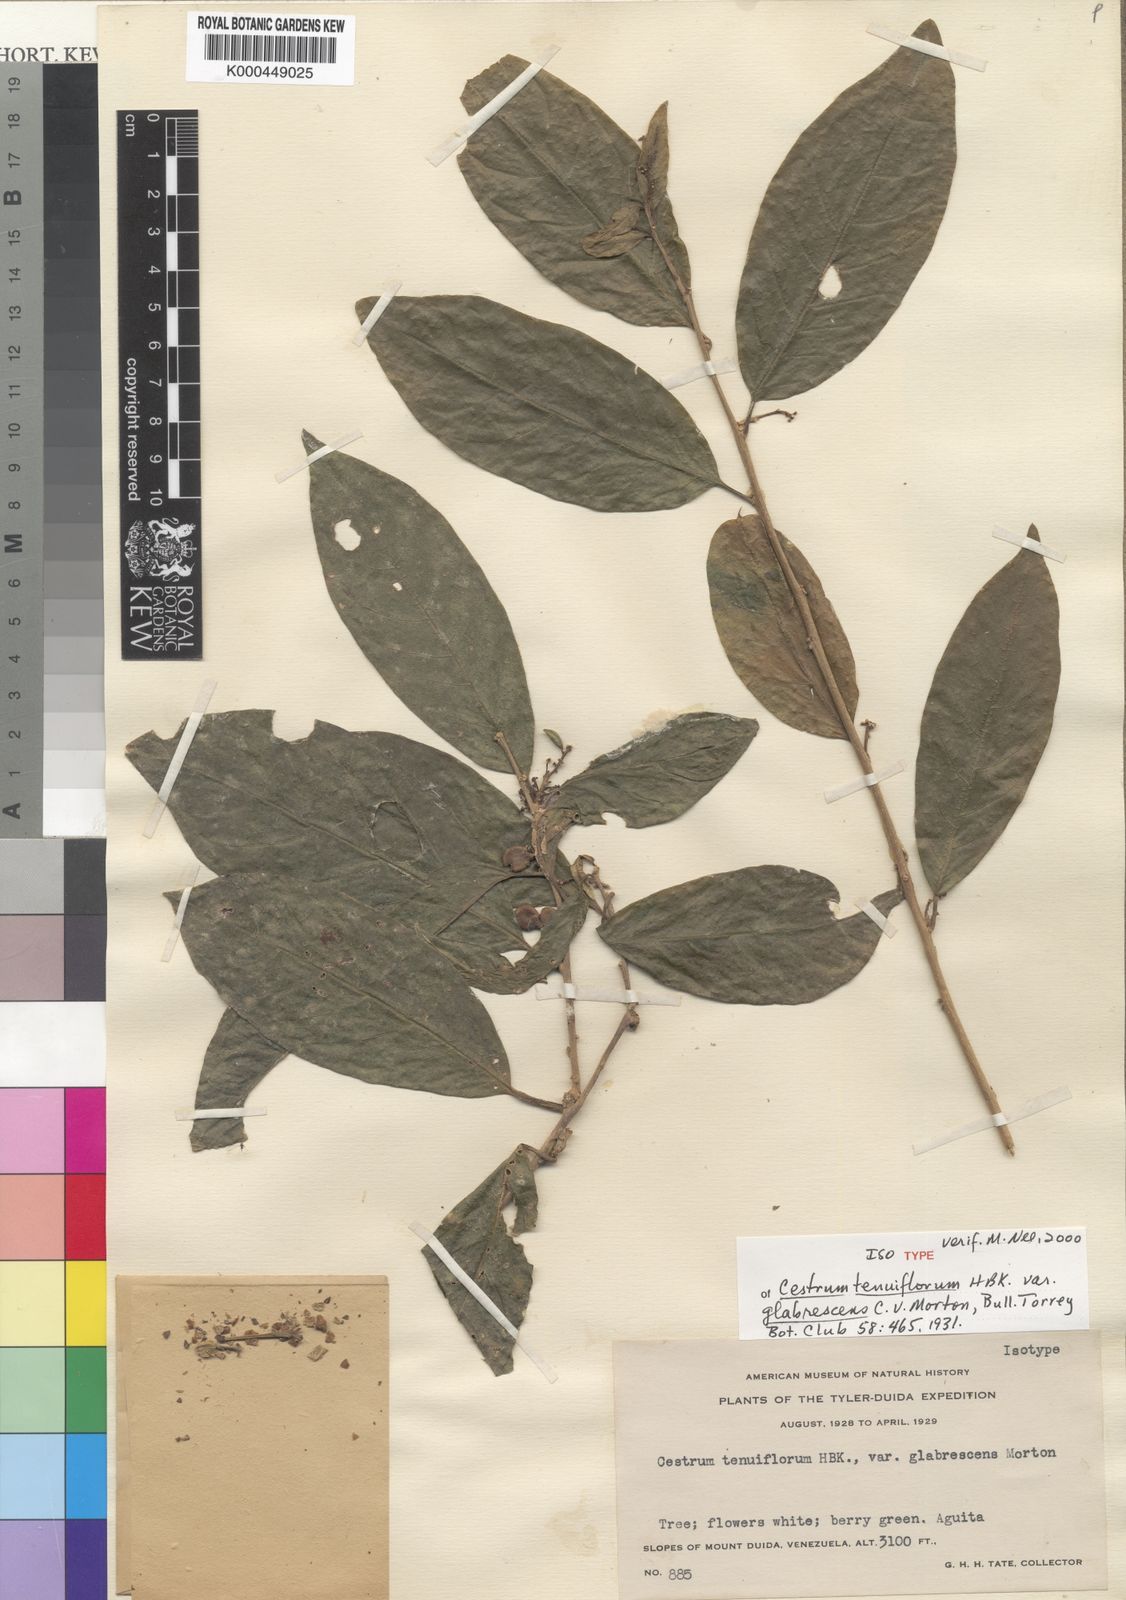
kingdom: Plantae
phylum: Tracheophyta
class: Magnoliopsida
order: Solanales
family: Solanaceae
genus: Cestrum
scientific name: Cestrum glabrescens
